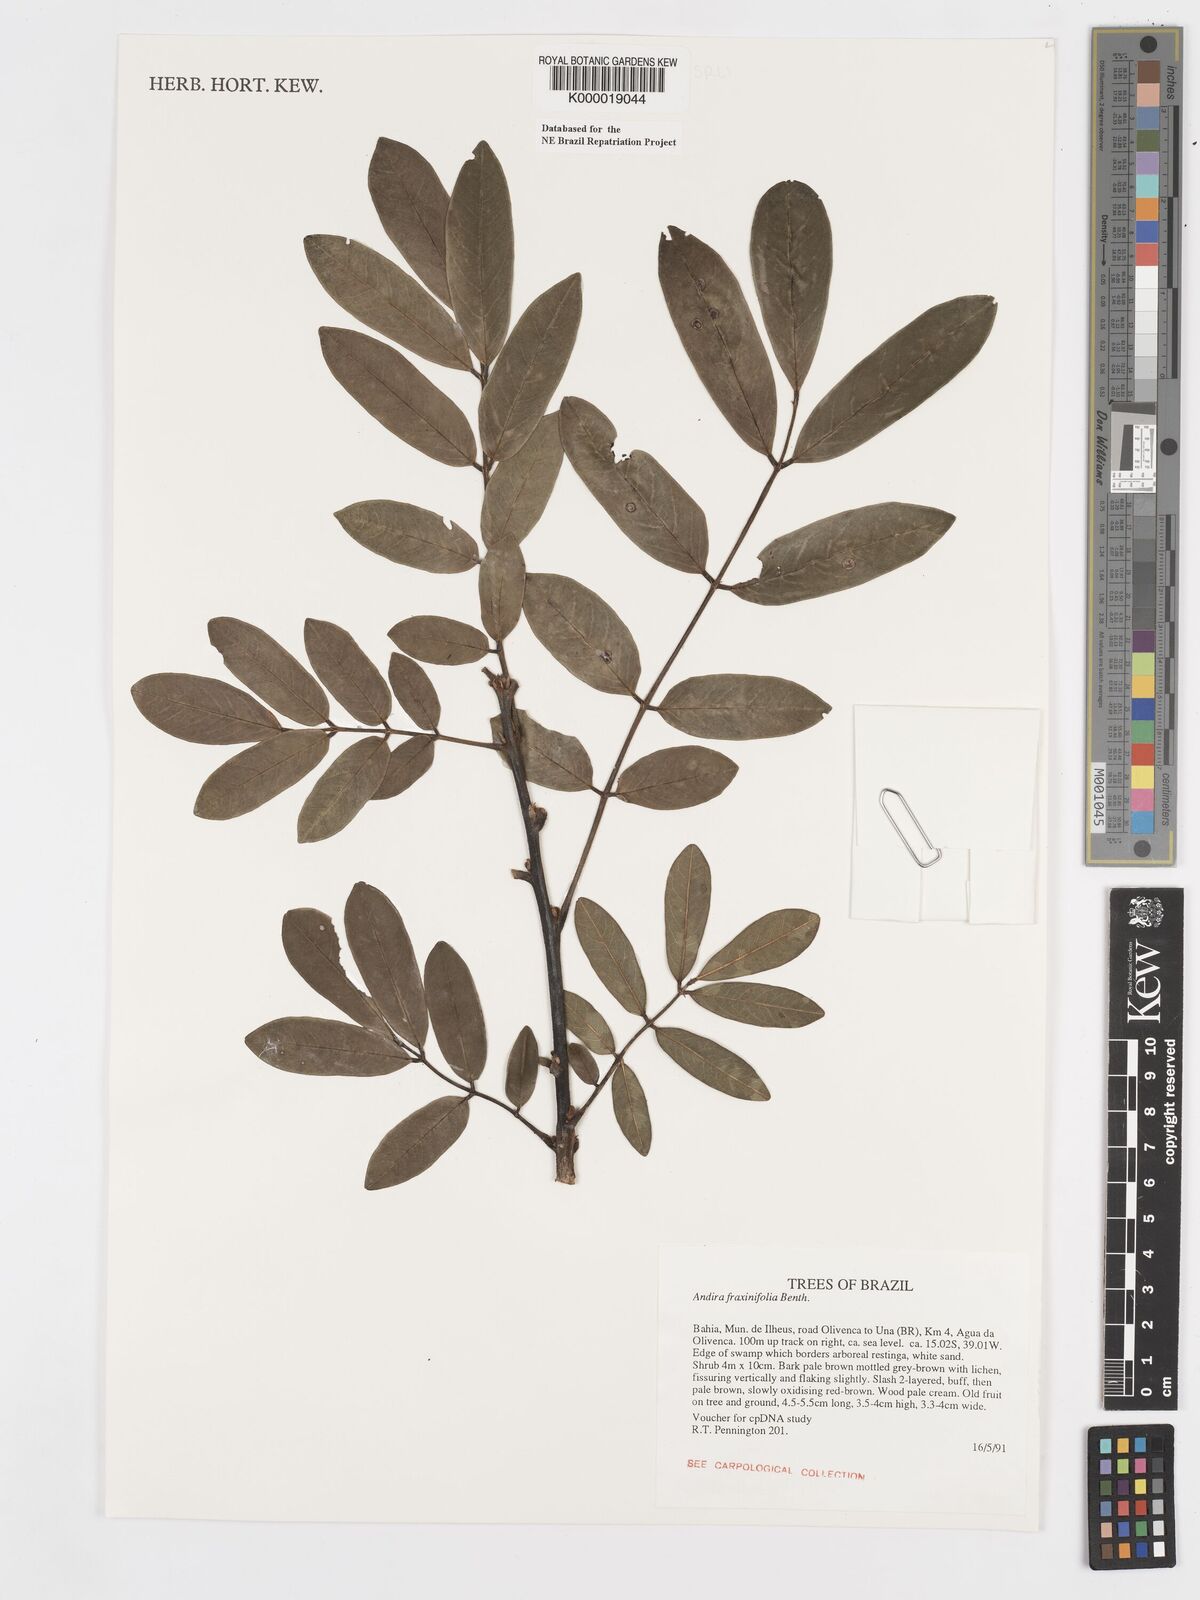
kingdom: Plantae
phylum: Tracheophyta
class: Magnoliopsida
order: Fabales
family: Fabaceae
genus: Andira
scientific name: Andira fraxinifolia
